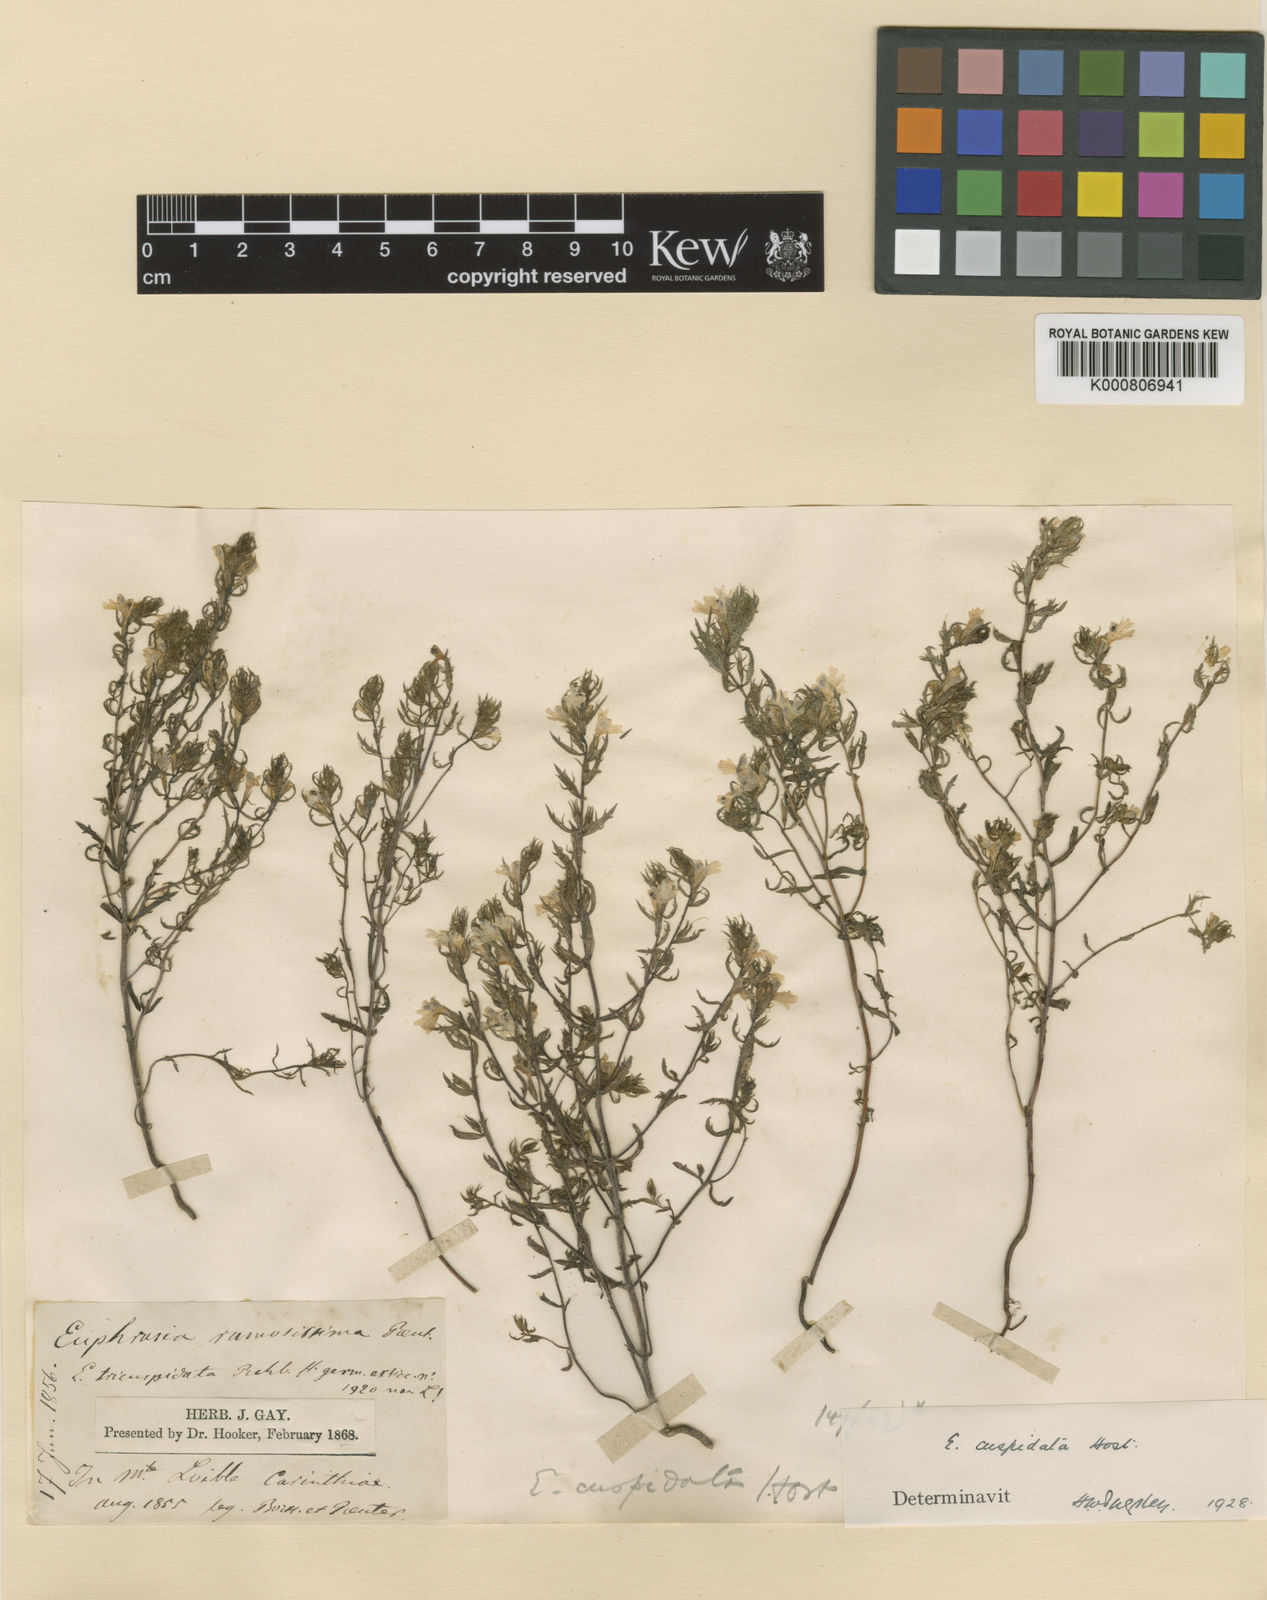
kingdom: Plantae
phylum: Tracheophyta
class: Magnoliopsida
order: Lamiales
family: Orobanchaceae
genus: Euphrasia
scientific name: Euphrasia hookeri
